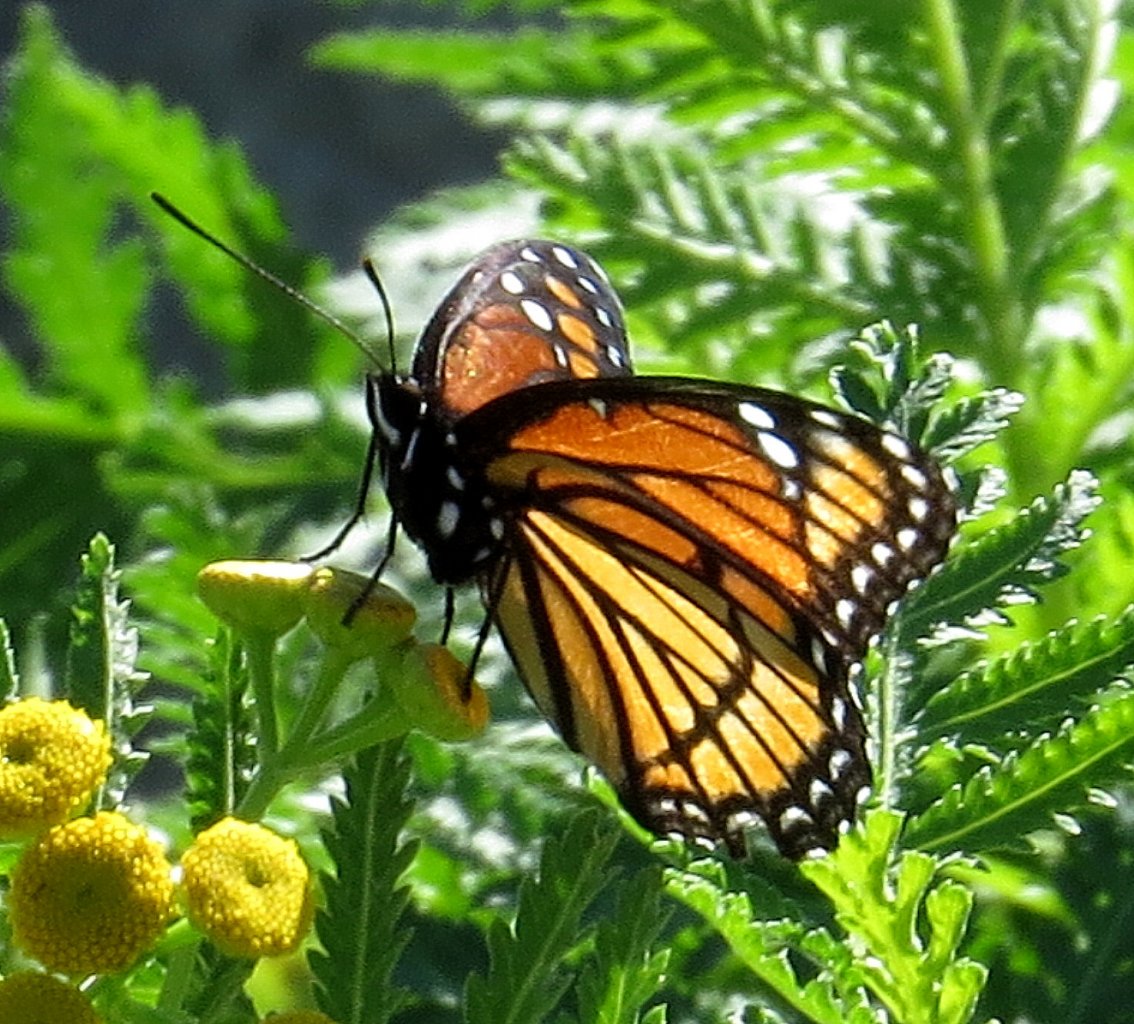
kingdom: Animalia
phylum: Arthropoda
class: Insecta
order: Lepidoptera
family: Nymphalidae
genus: Limenitis
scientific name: Limenitis archippus
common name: Viceroy
